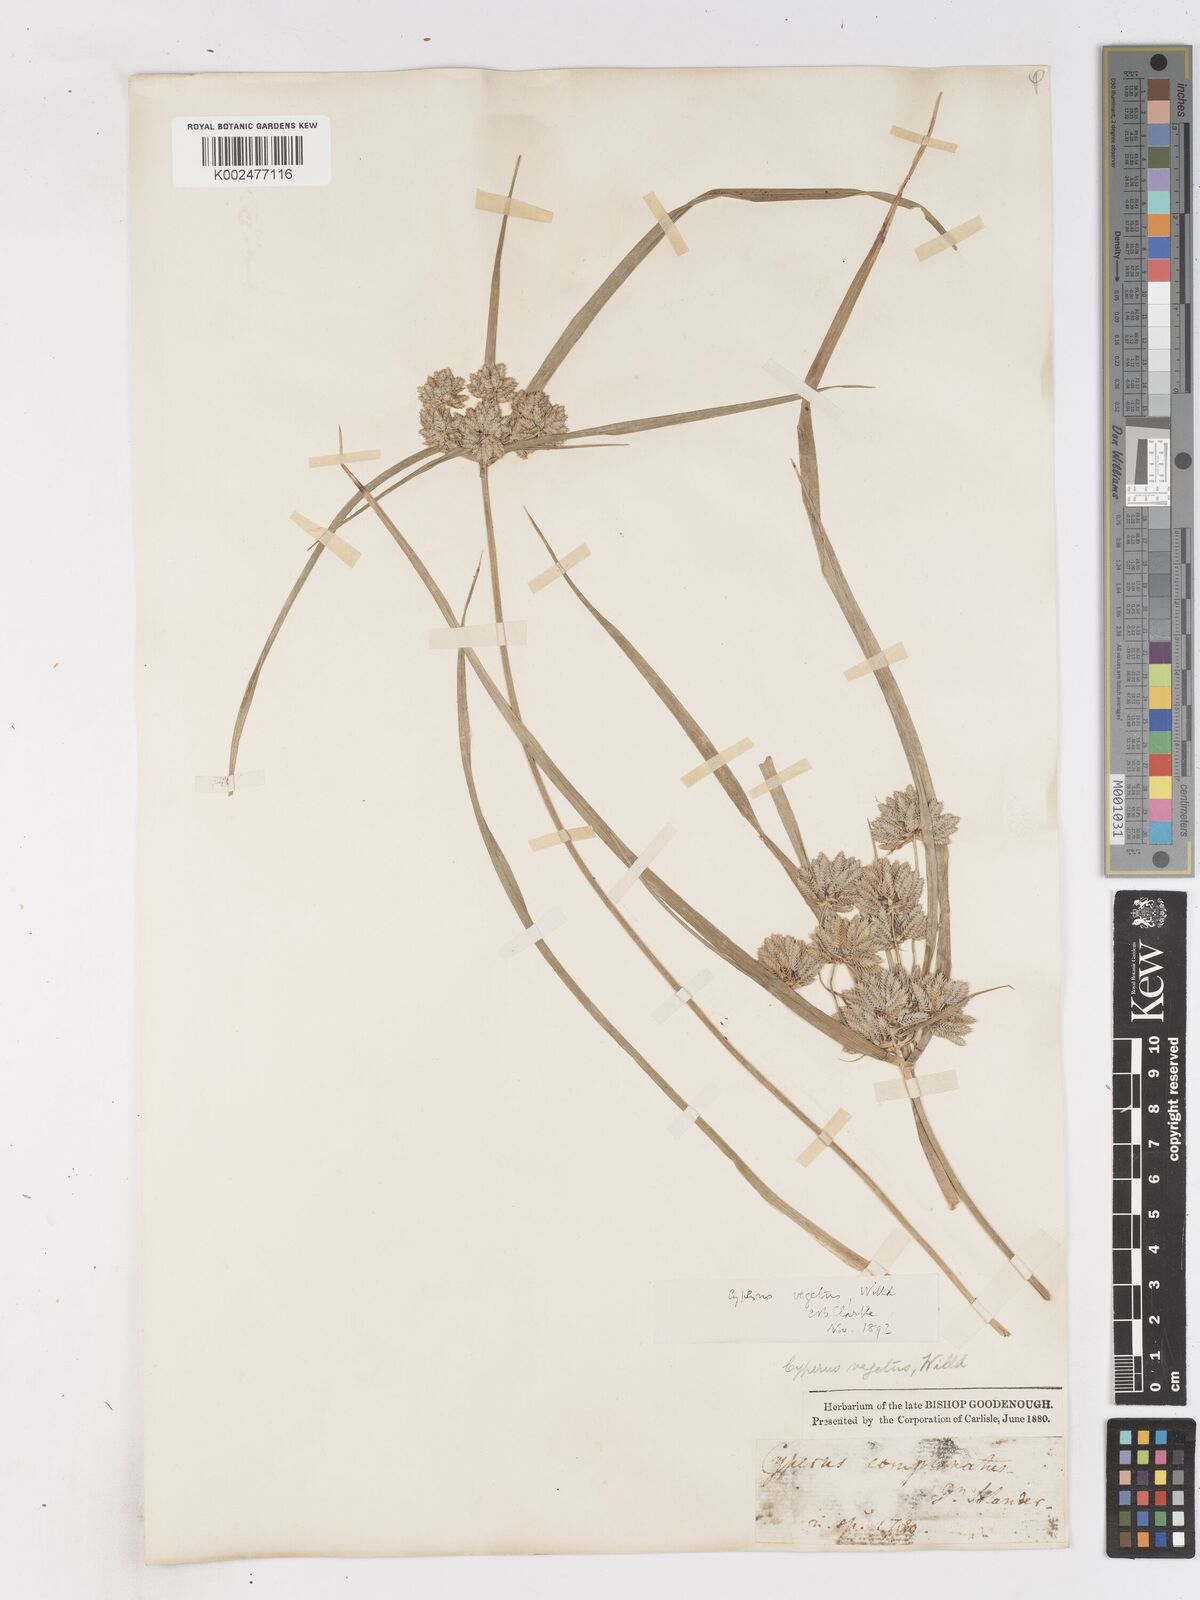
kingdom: Plantae
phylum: Tracheophyta
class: Liliopsida
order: Poales
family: Cyperaceae
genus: Cyperus
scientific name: Cyperus eragrostis
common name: Tall flatsedge
